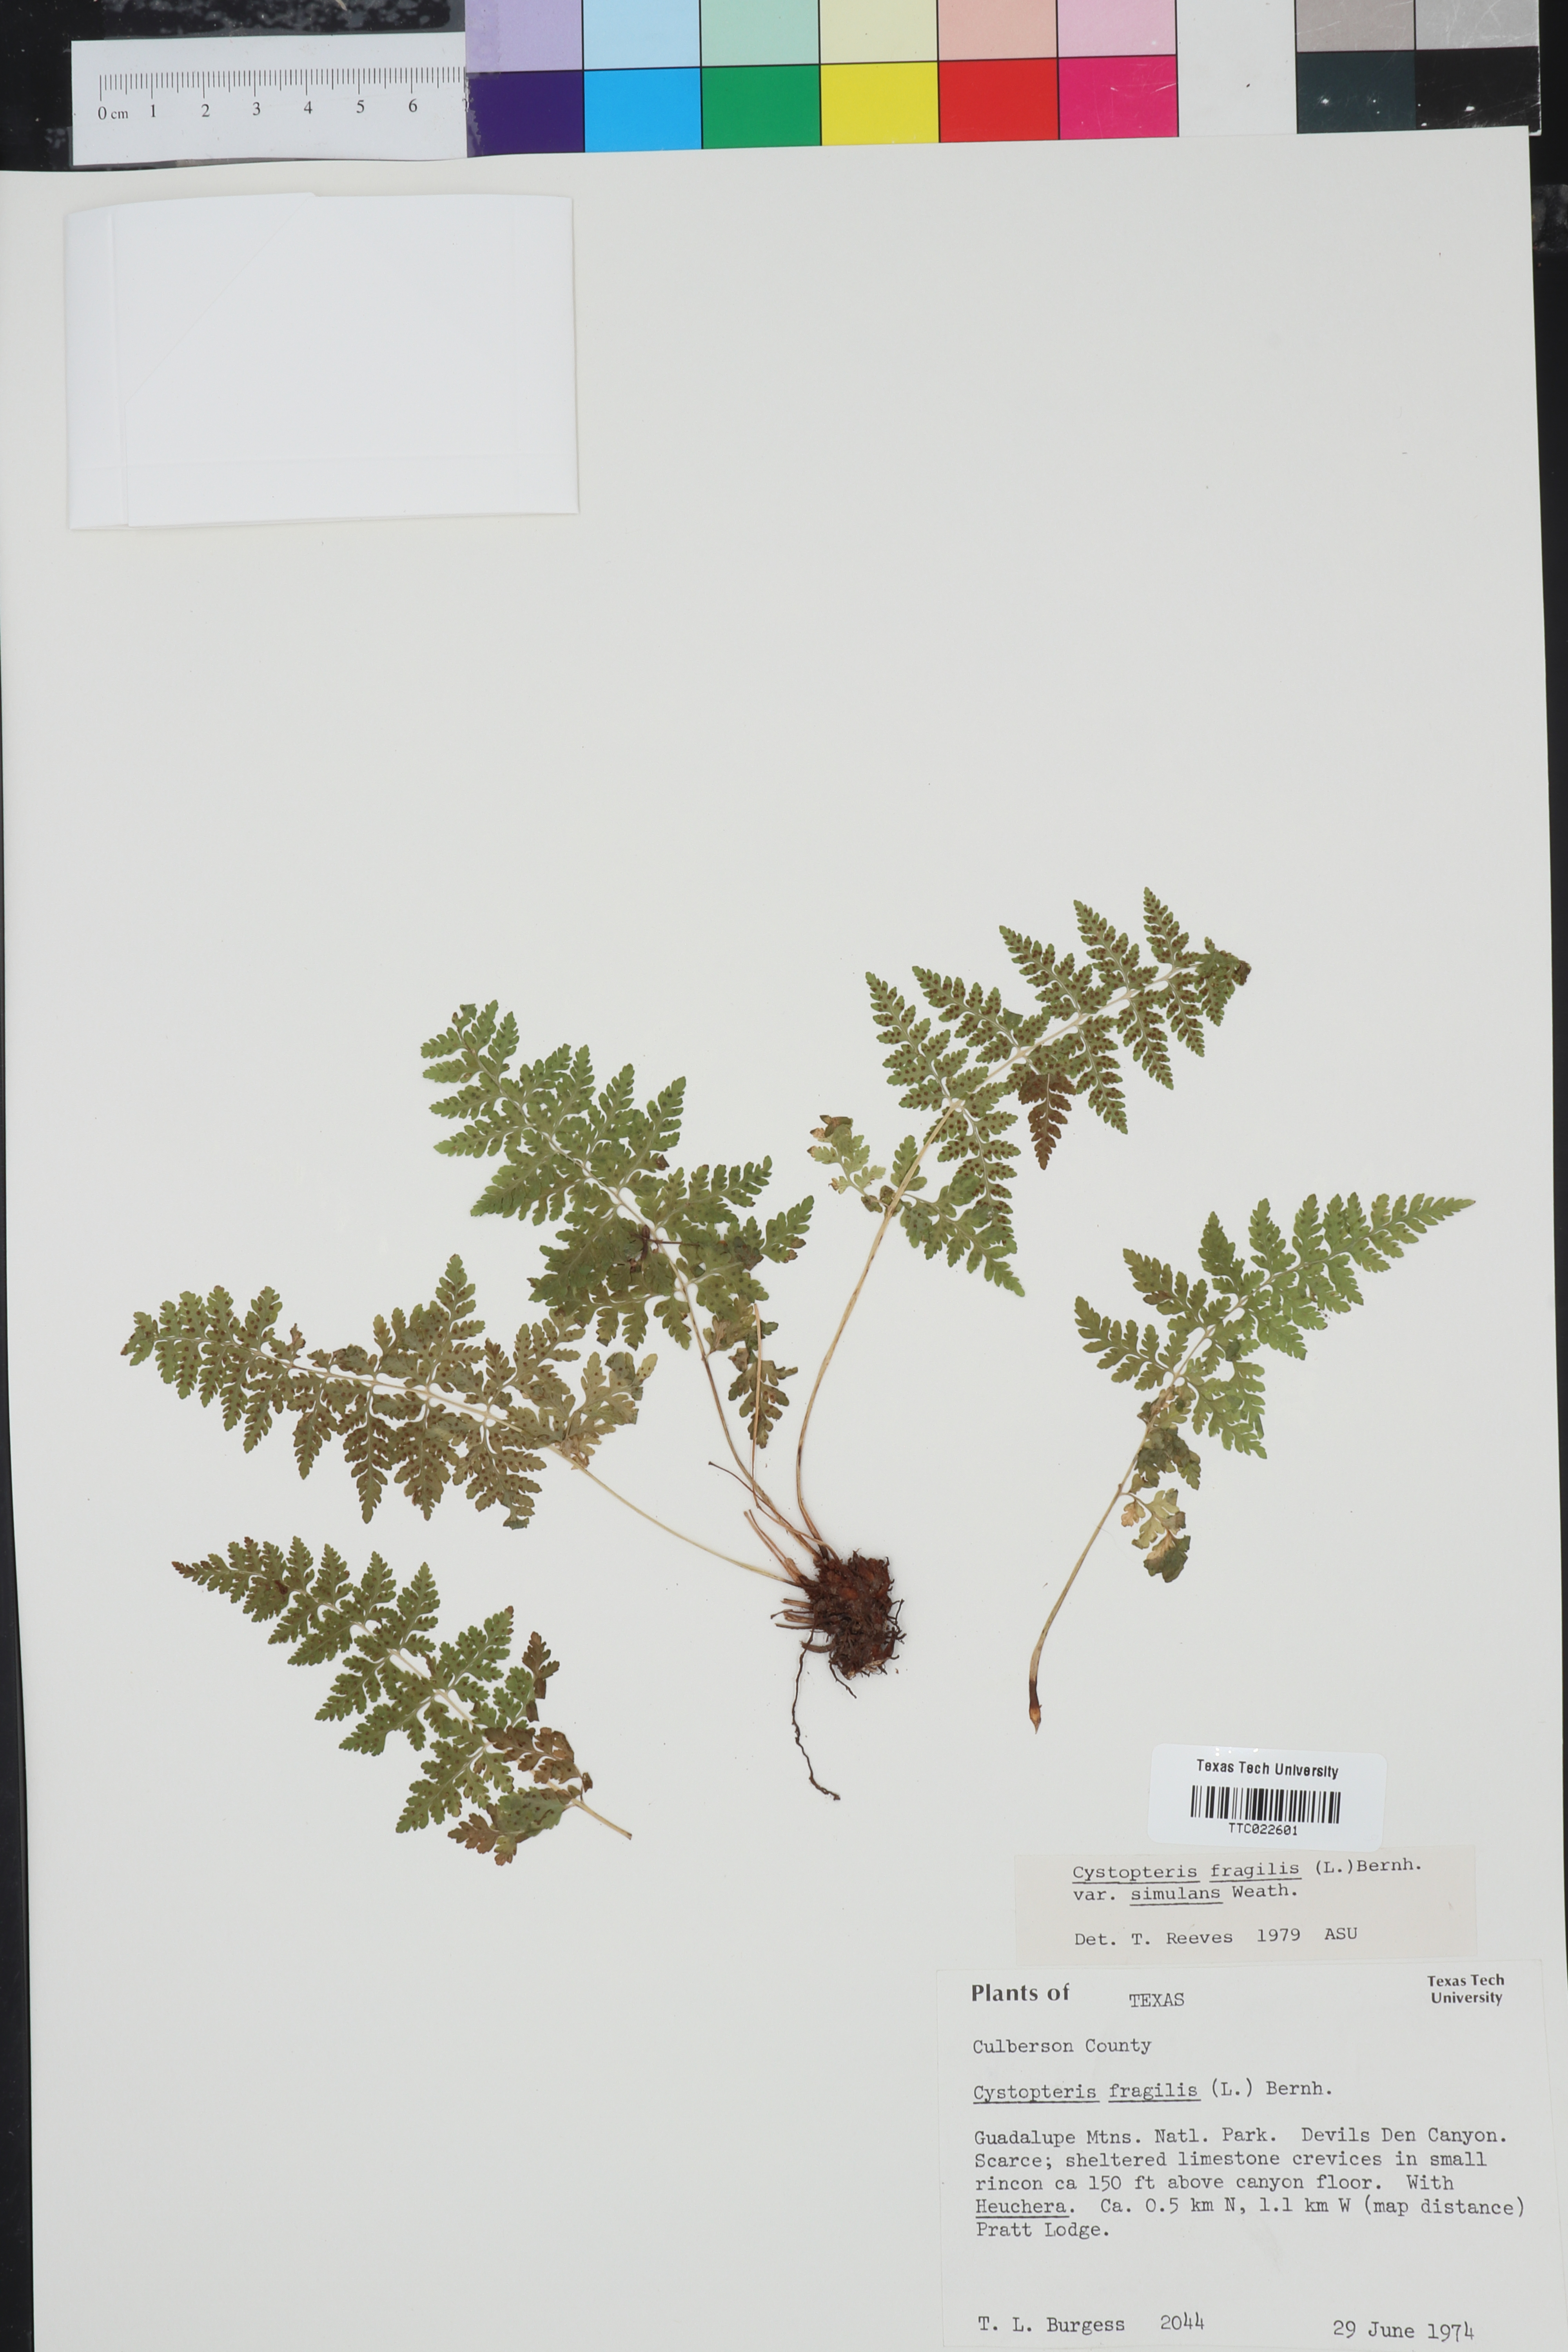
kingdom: Plantae
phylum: Tracheophyta
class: Polypodiopsida
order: Polypodiales
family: Cystopteridaceae
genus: Cystopteris
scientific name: Cystopteris tennesseensis
